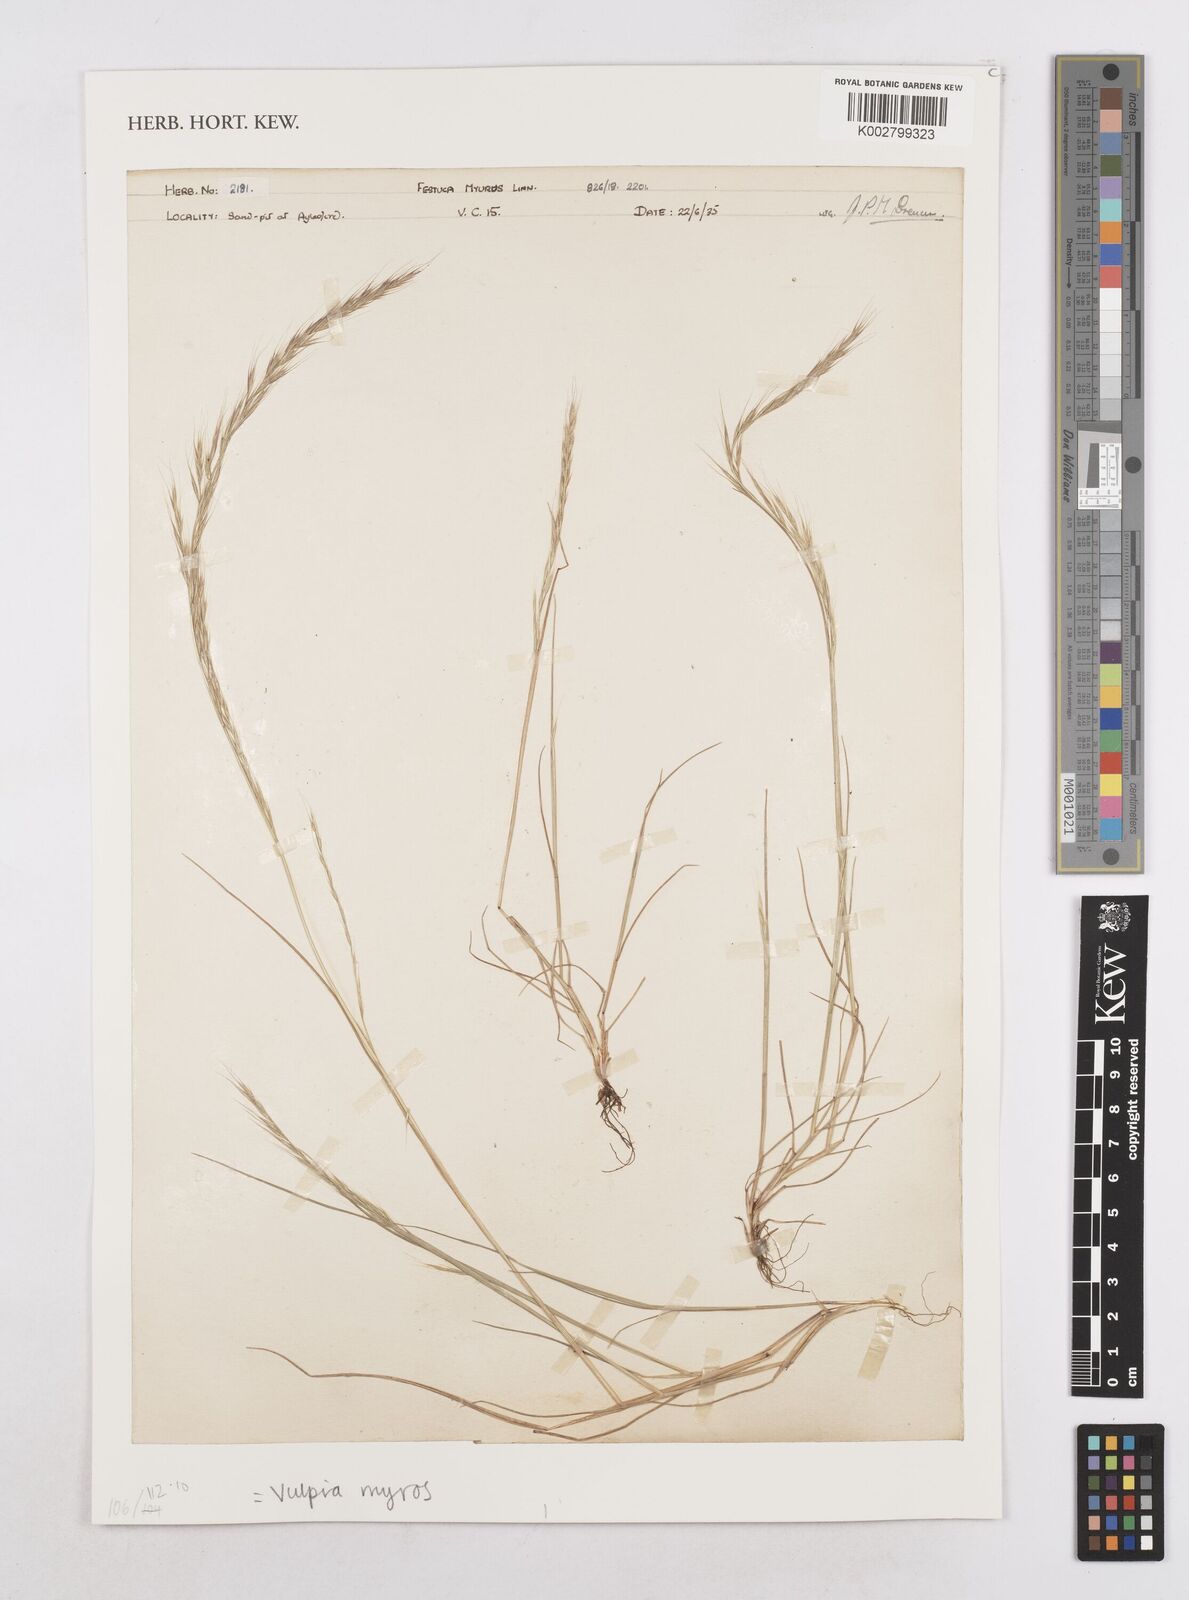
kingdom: Plantae
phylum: Tracheophyta
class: Liliopsida
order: Poales
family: Poaceae
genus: Festuca
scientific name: Festuca myuros
